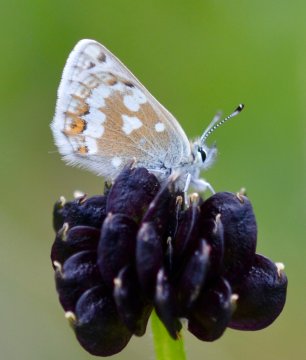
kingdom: Animalia
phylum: Arthropoda
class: Insecta
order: Lepidoptera
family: Lycaenidae
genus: Agriades
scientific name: Agriades glandon
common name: Arctic Blue
